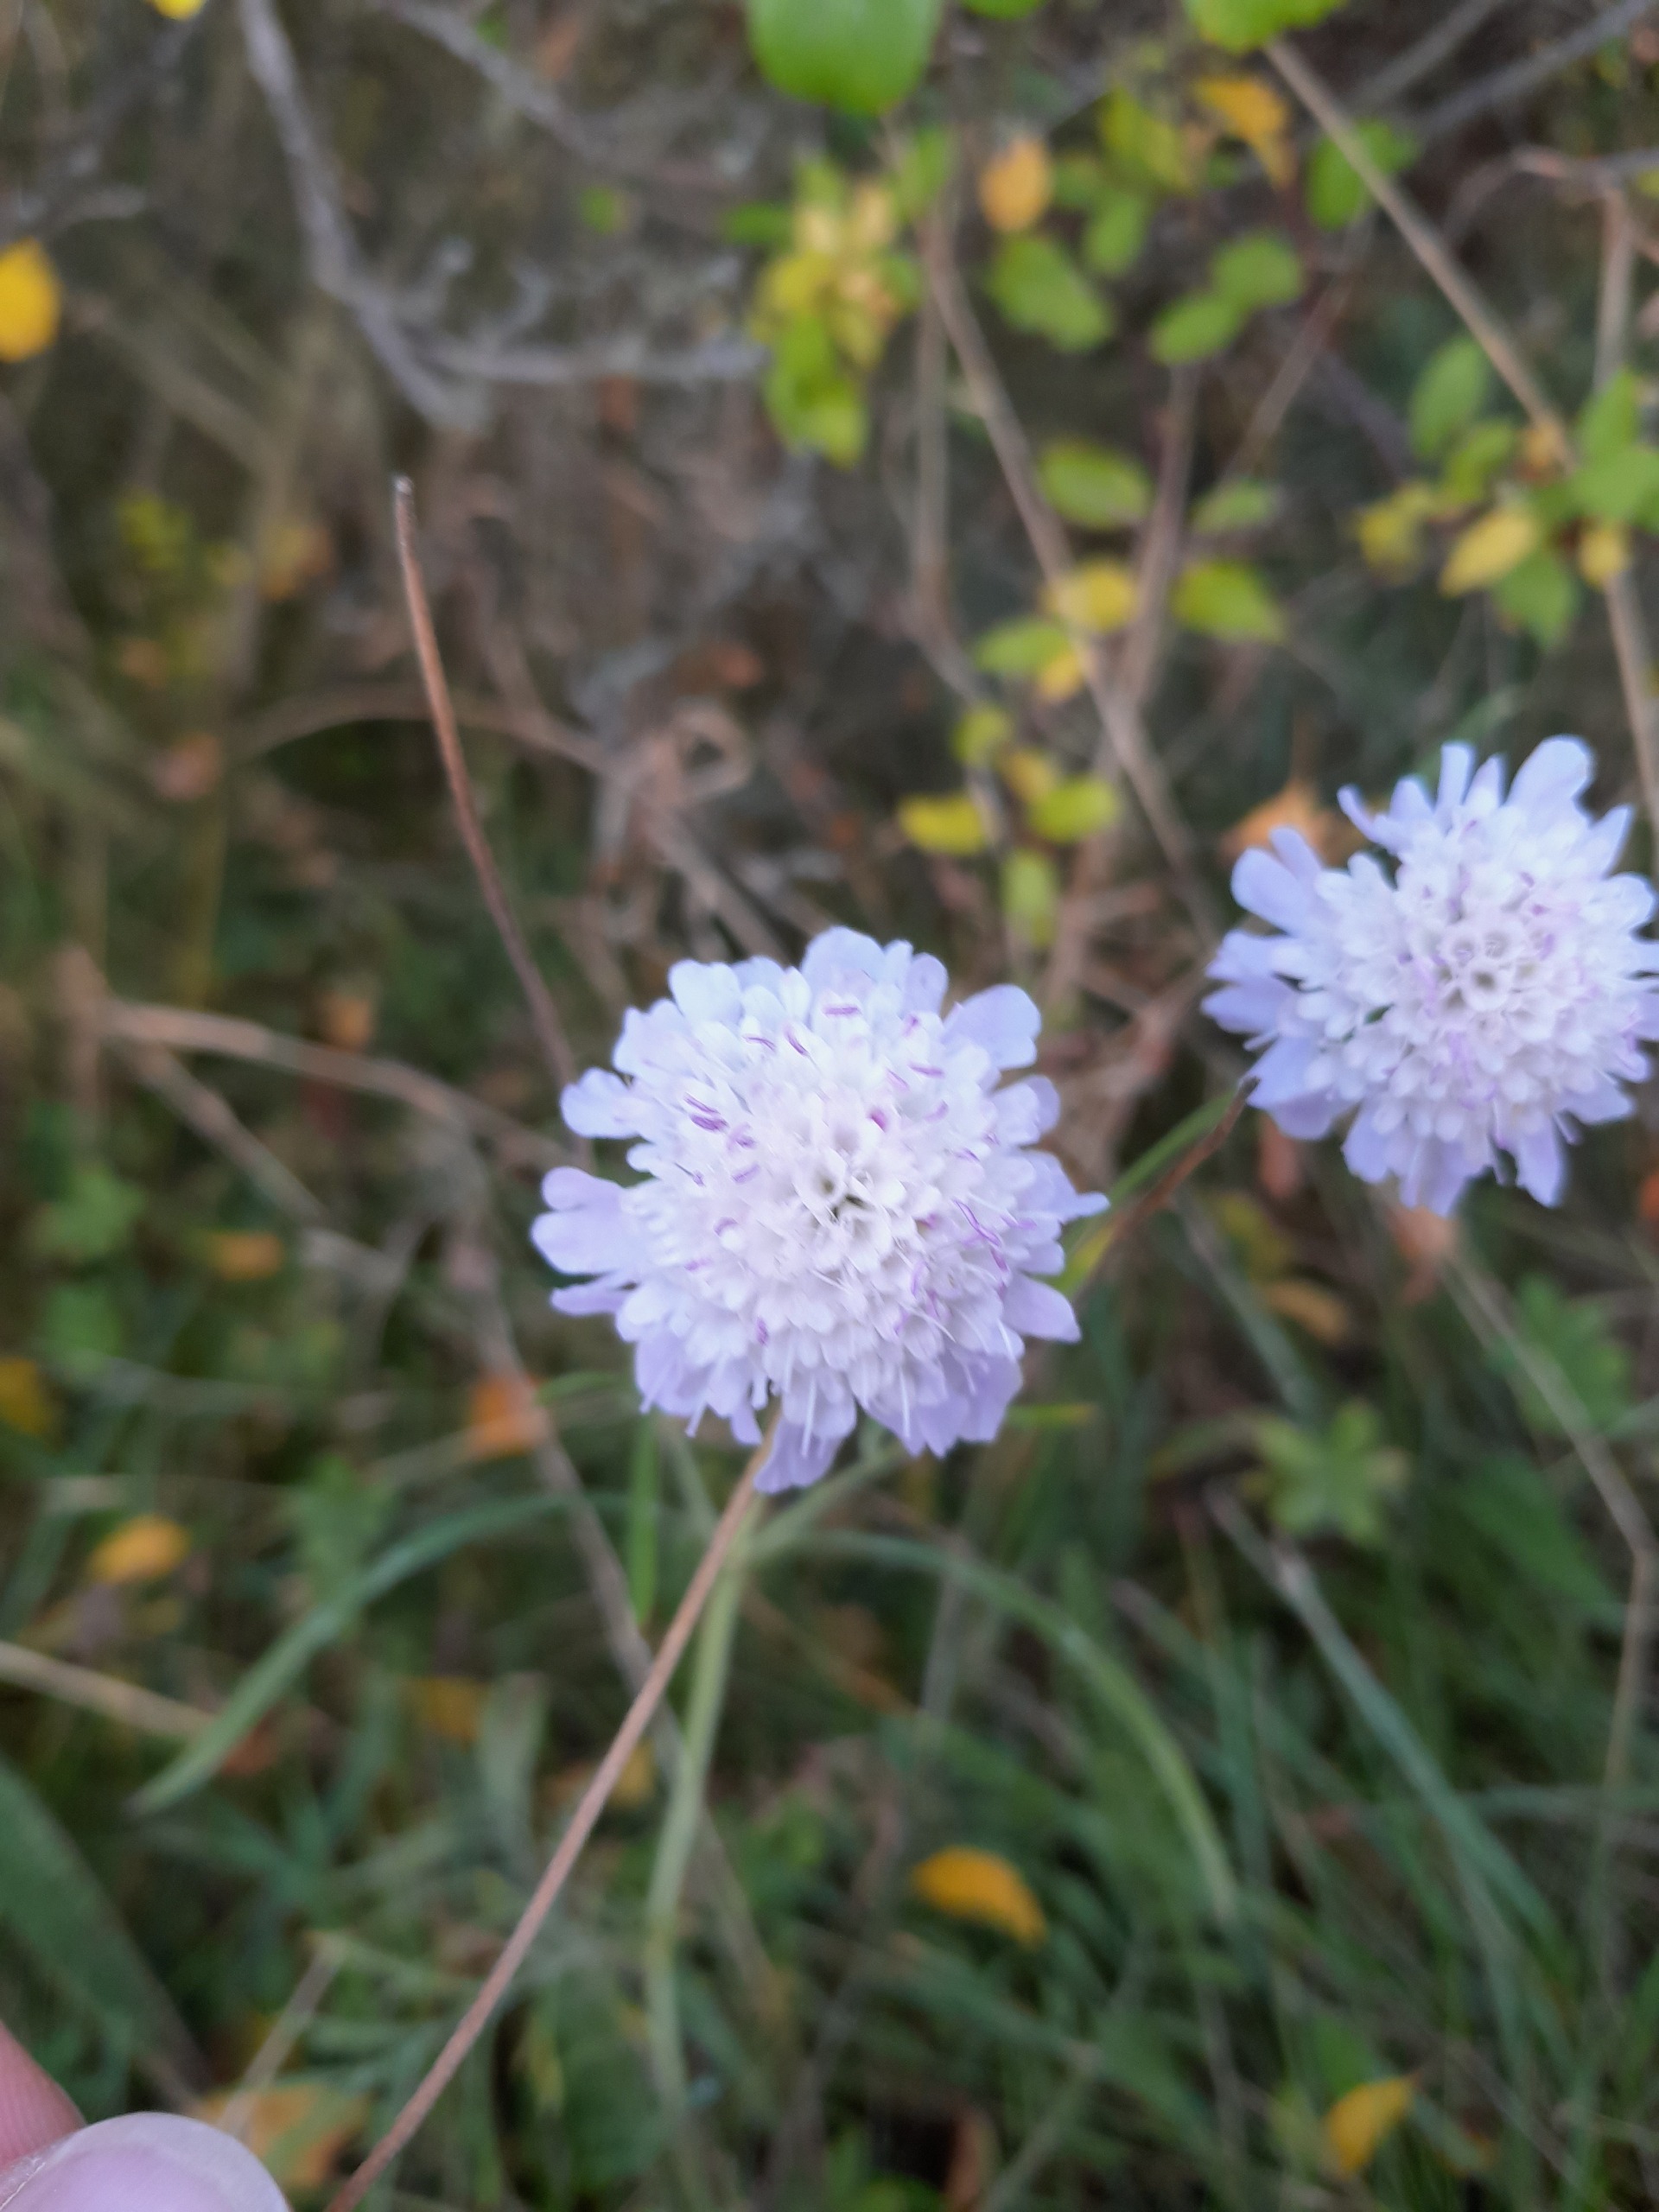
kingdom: Plantae
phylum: Tracheophyta
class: Magnoliopsida
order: Dipsacales
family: Caprifoliaceae
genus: Scabiosa
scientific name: Scabiosa columbaria
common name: Due-skabiose
